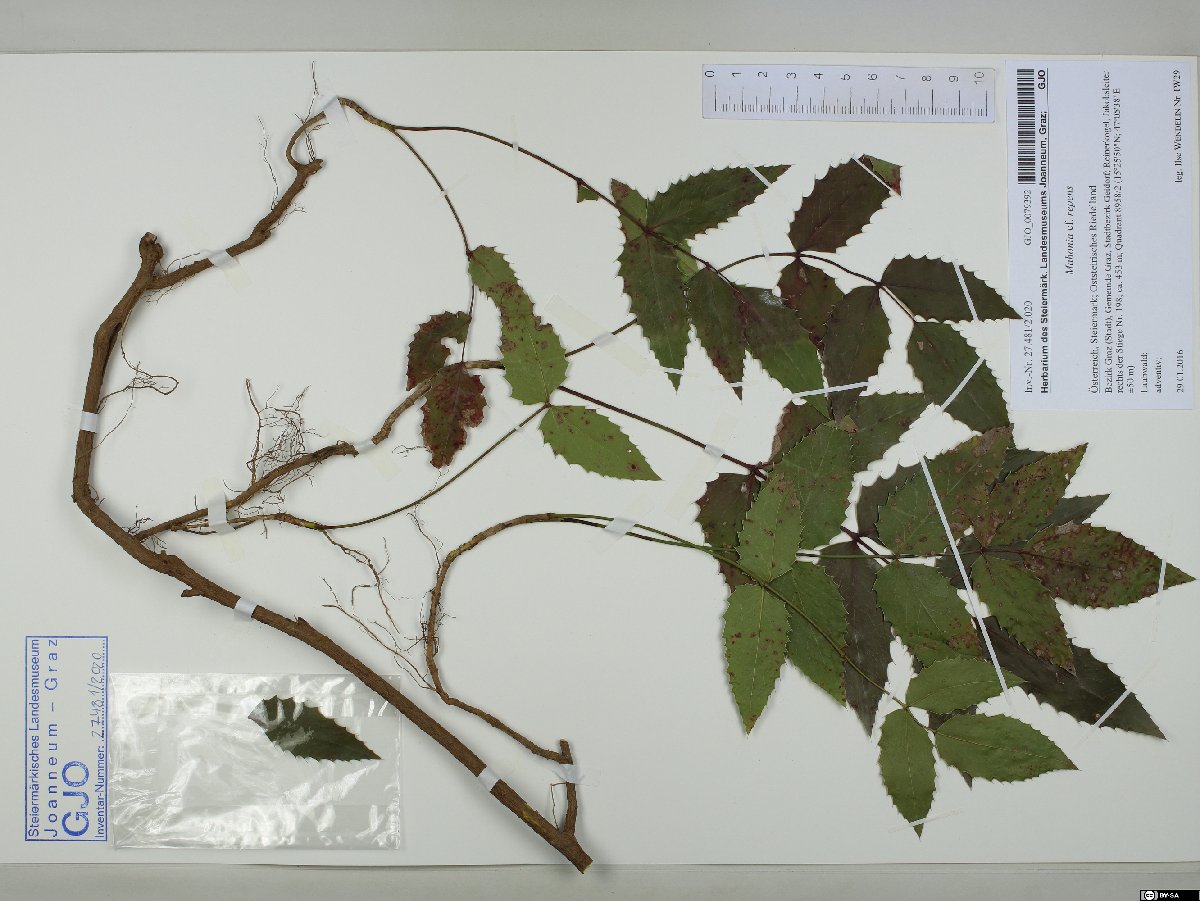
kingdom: Plantae
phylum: Tracheophyta
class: Magnoliopsida
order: Ranunculales
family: Berberidaceae
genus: Mahonia
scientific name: Mahonia repens
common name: Creeping oregon-grape
